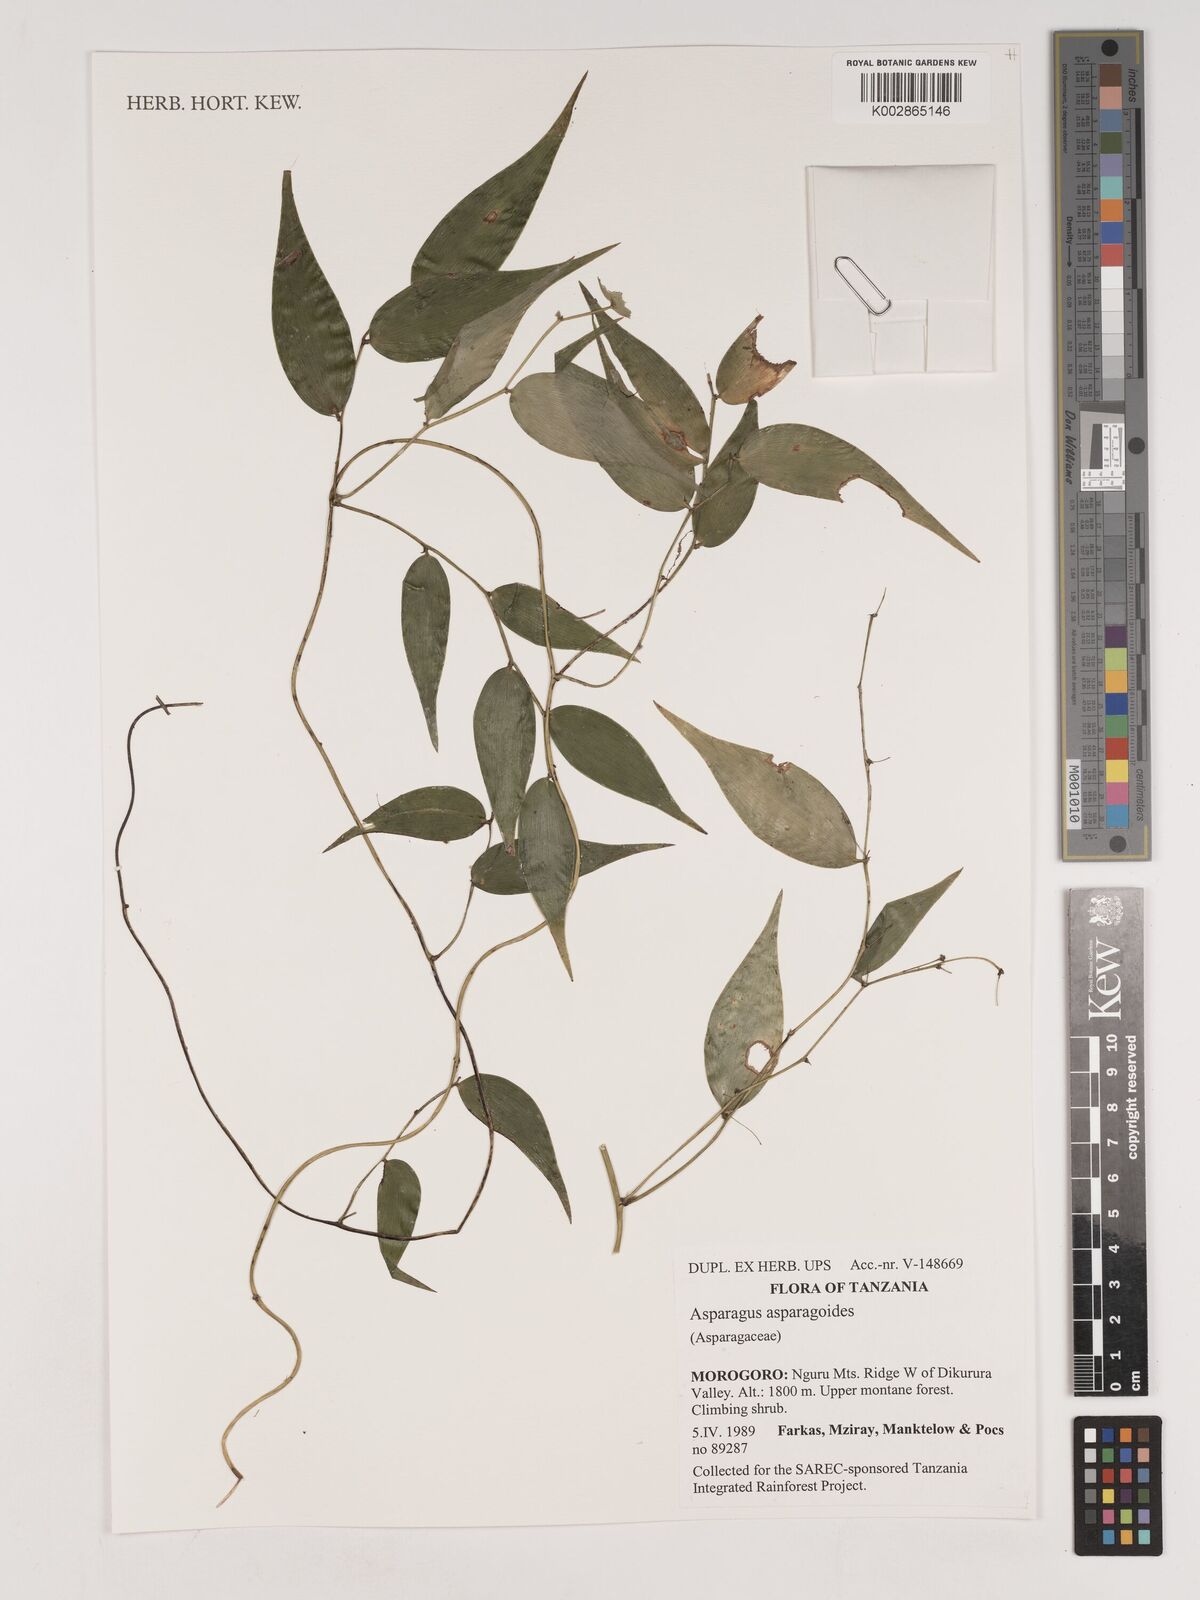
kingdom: Plantae
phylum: Tracheophyta
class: Liliopsida
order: Asparagales
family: Asparagaceae
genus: Asparagus
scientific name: Asparagus asparagoides
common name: African asparagus fern
